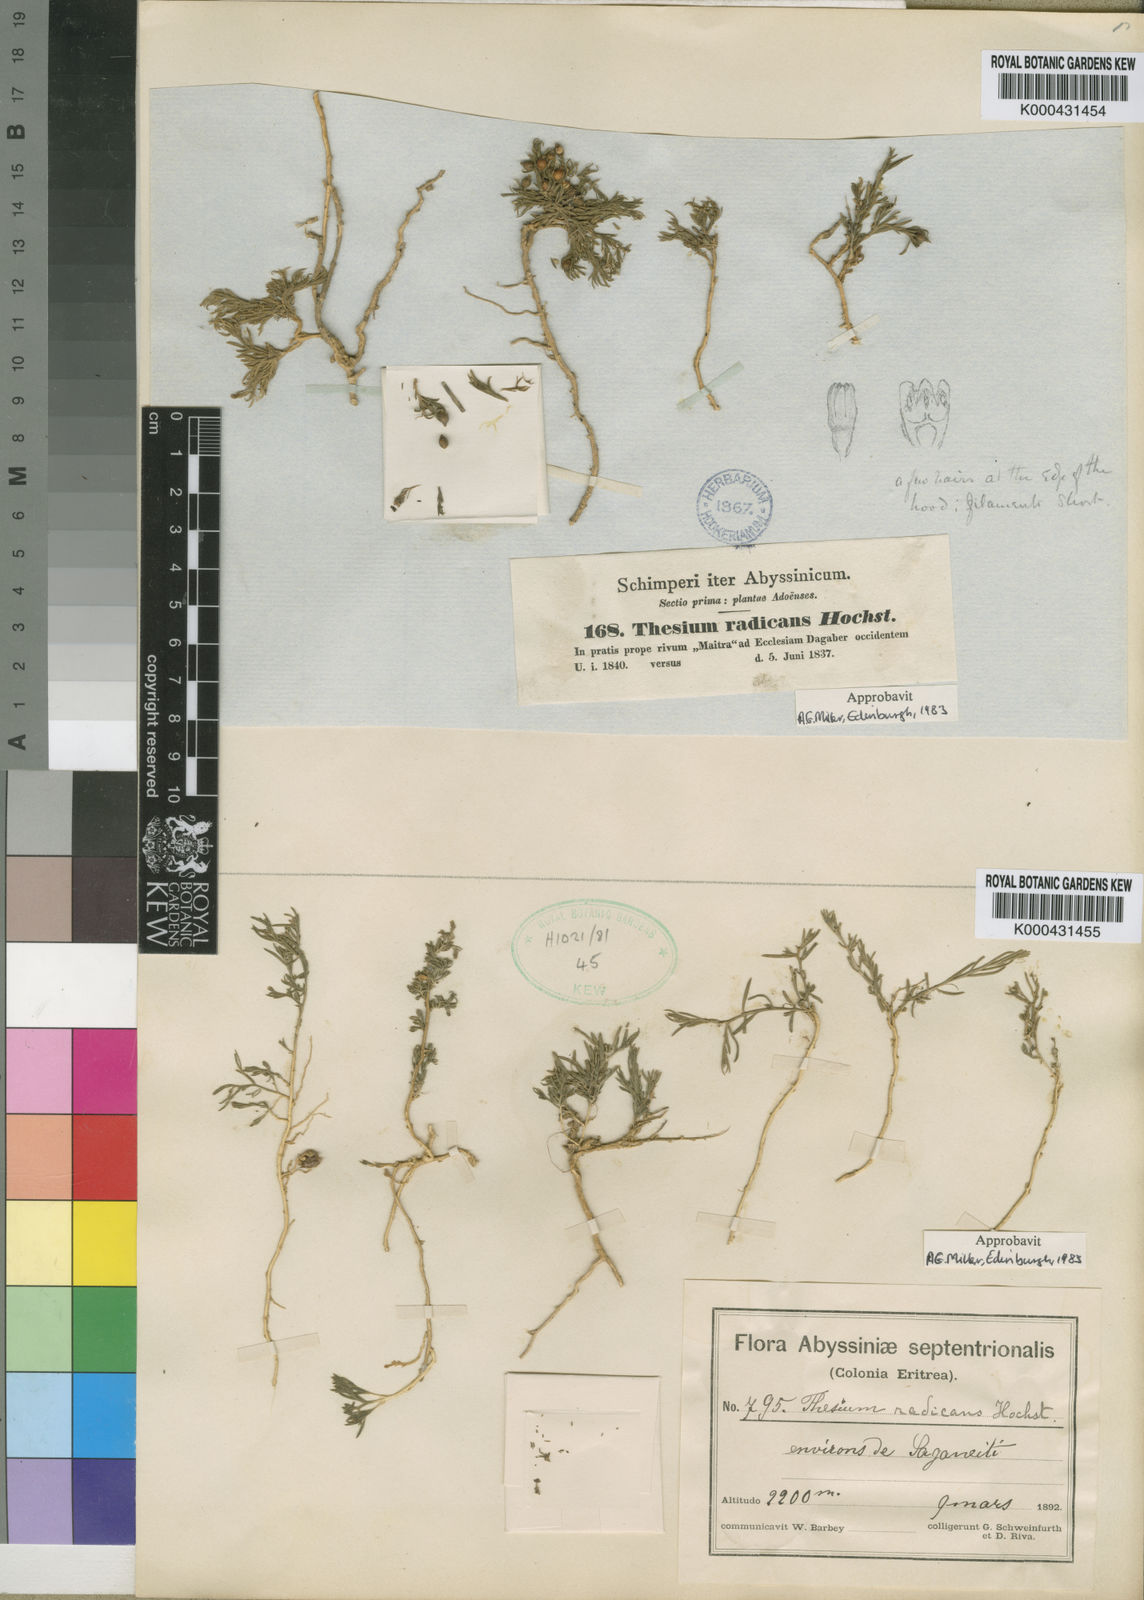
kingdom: Plantae
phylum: Tracheophyta
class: Magnoliopsida
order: Santalales
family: Thesiaceae
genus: Thesium
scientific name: Thesium radicans
